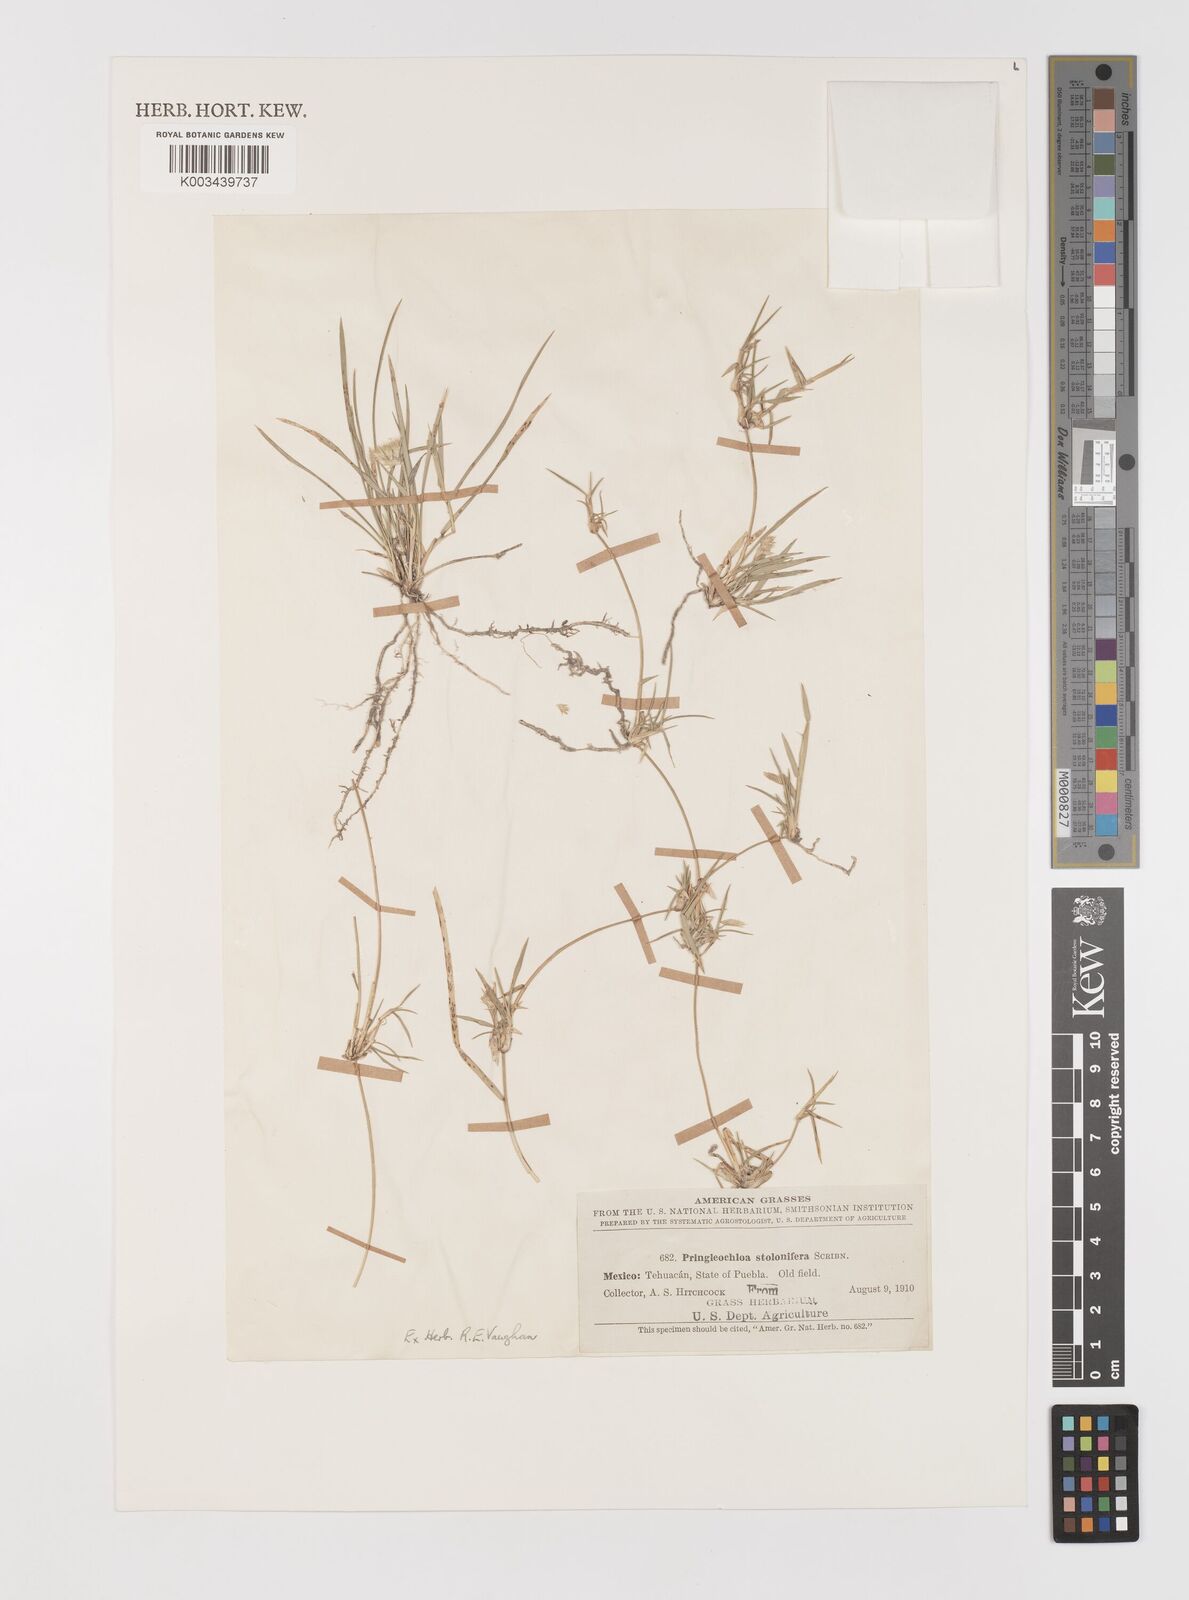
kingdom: Plantae
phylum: Tracheophyta
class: Liliopsida
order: Poales
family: Poaceae
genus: Bouteloua
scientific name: Bouteloua reederorum
